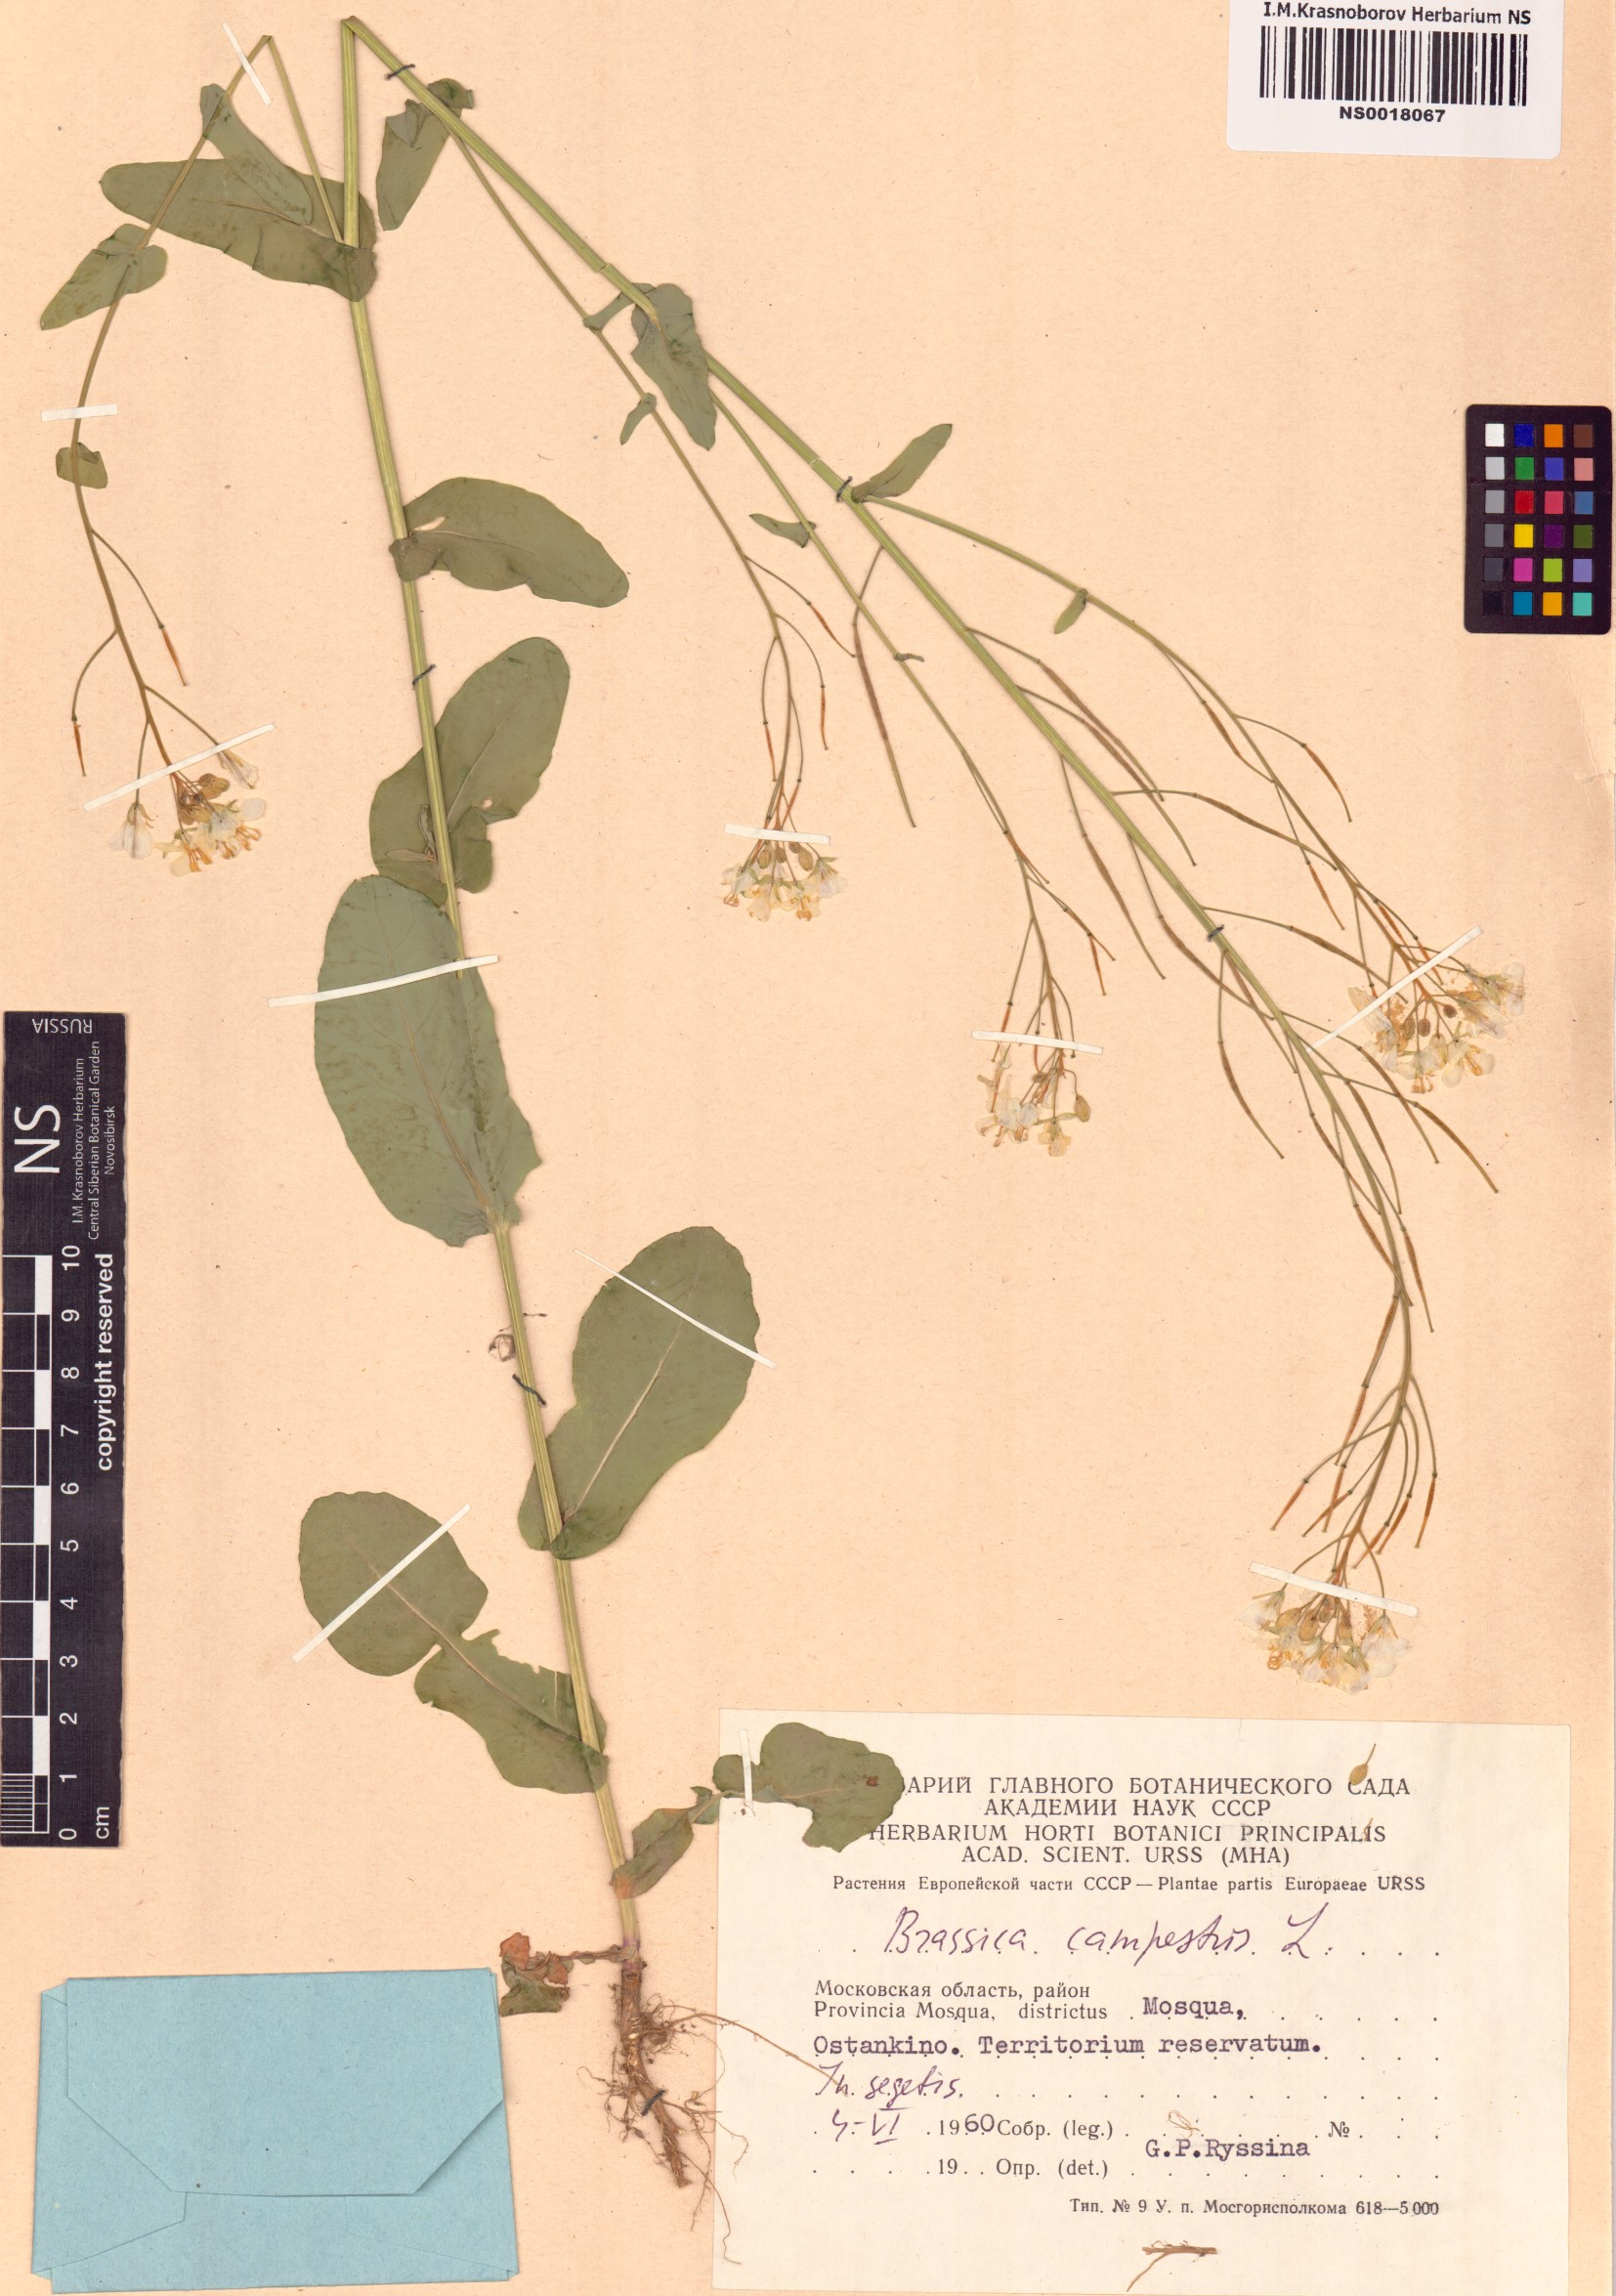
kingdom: Plantae
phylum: Tracheophyta
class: Magnoliopsida
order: Brassicales
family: Brassicaceae
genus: Brassica
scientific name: Brassica rapa
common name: Field mustard
